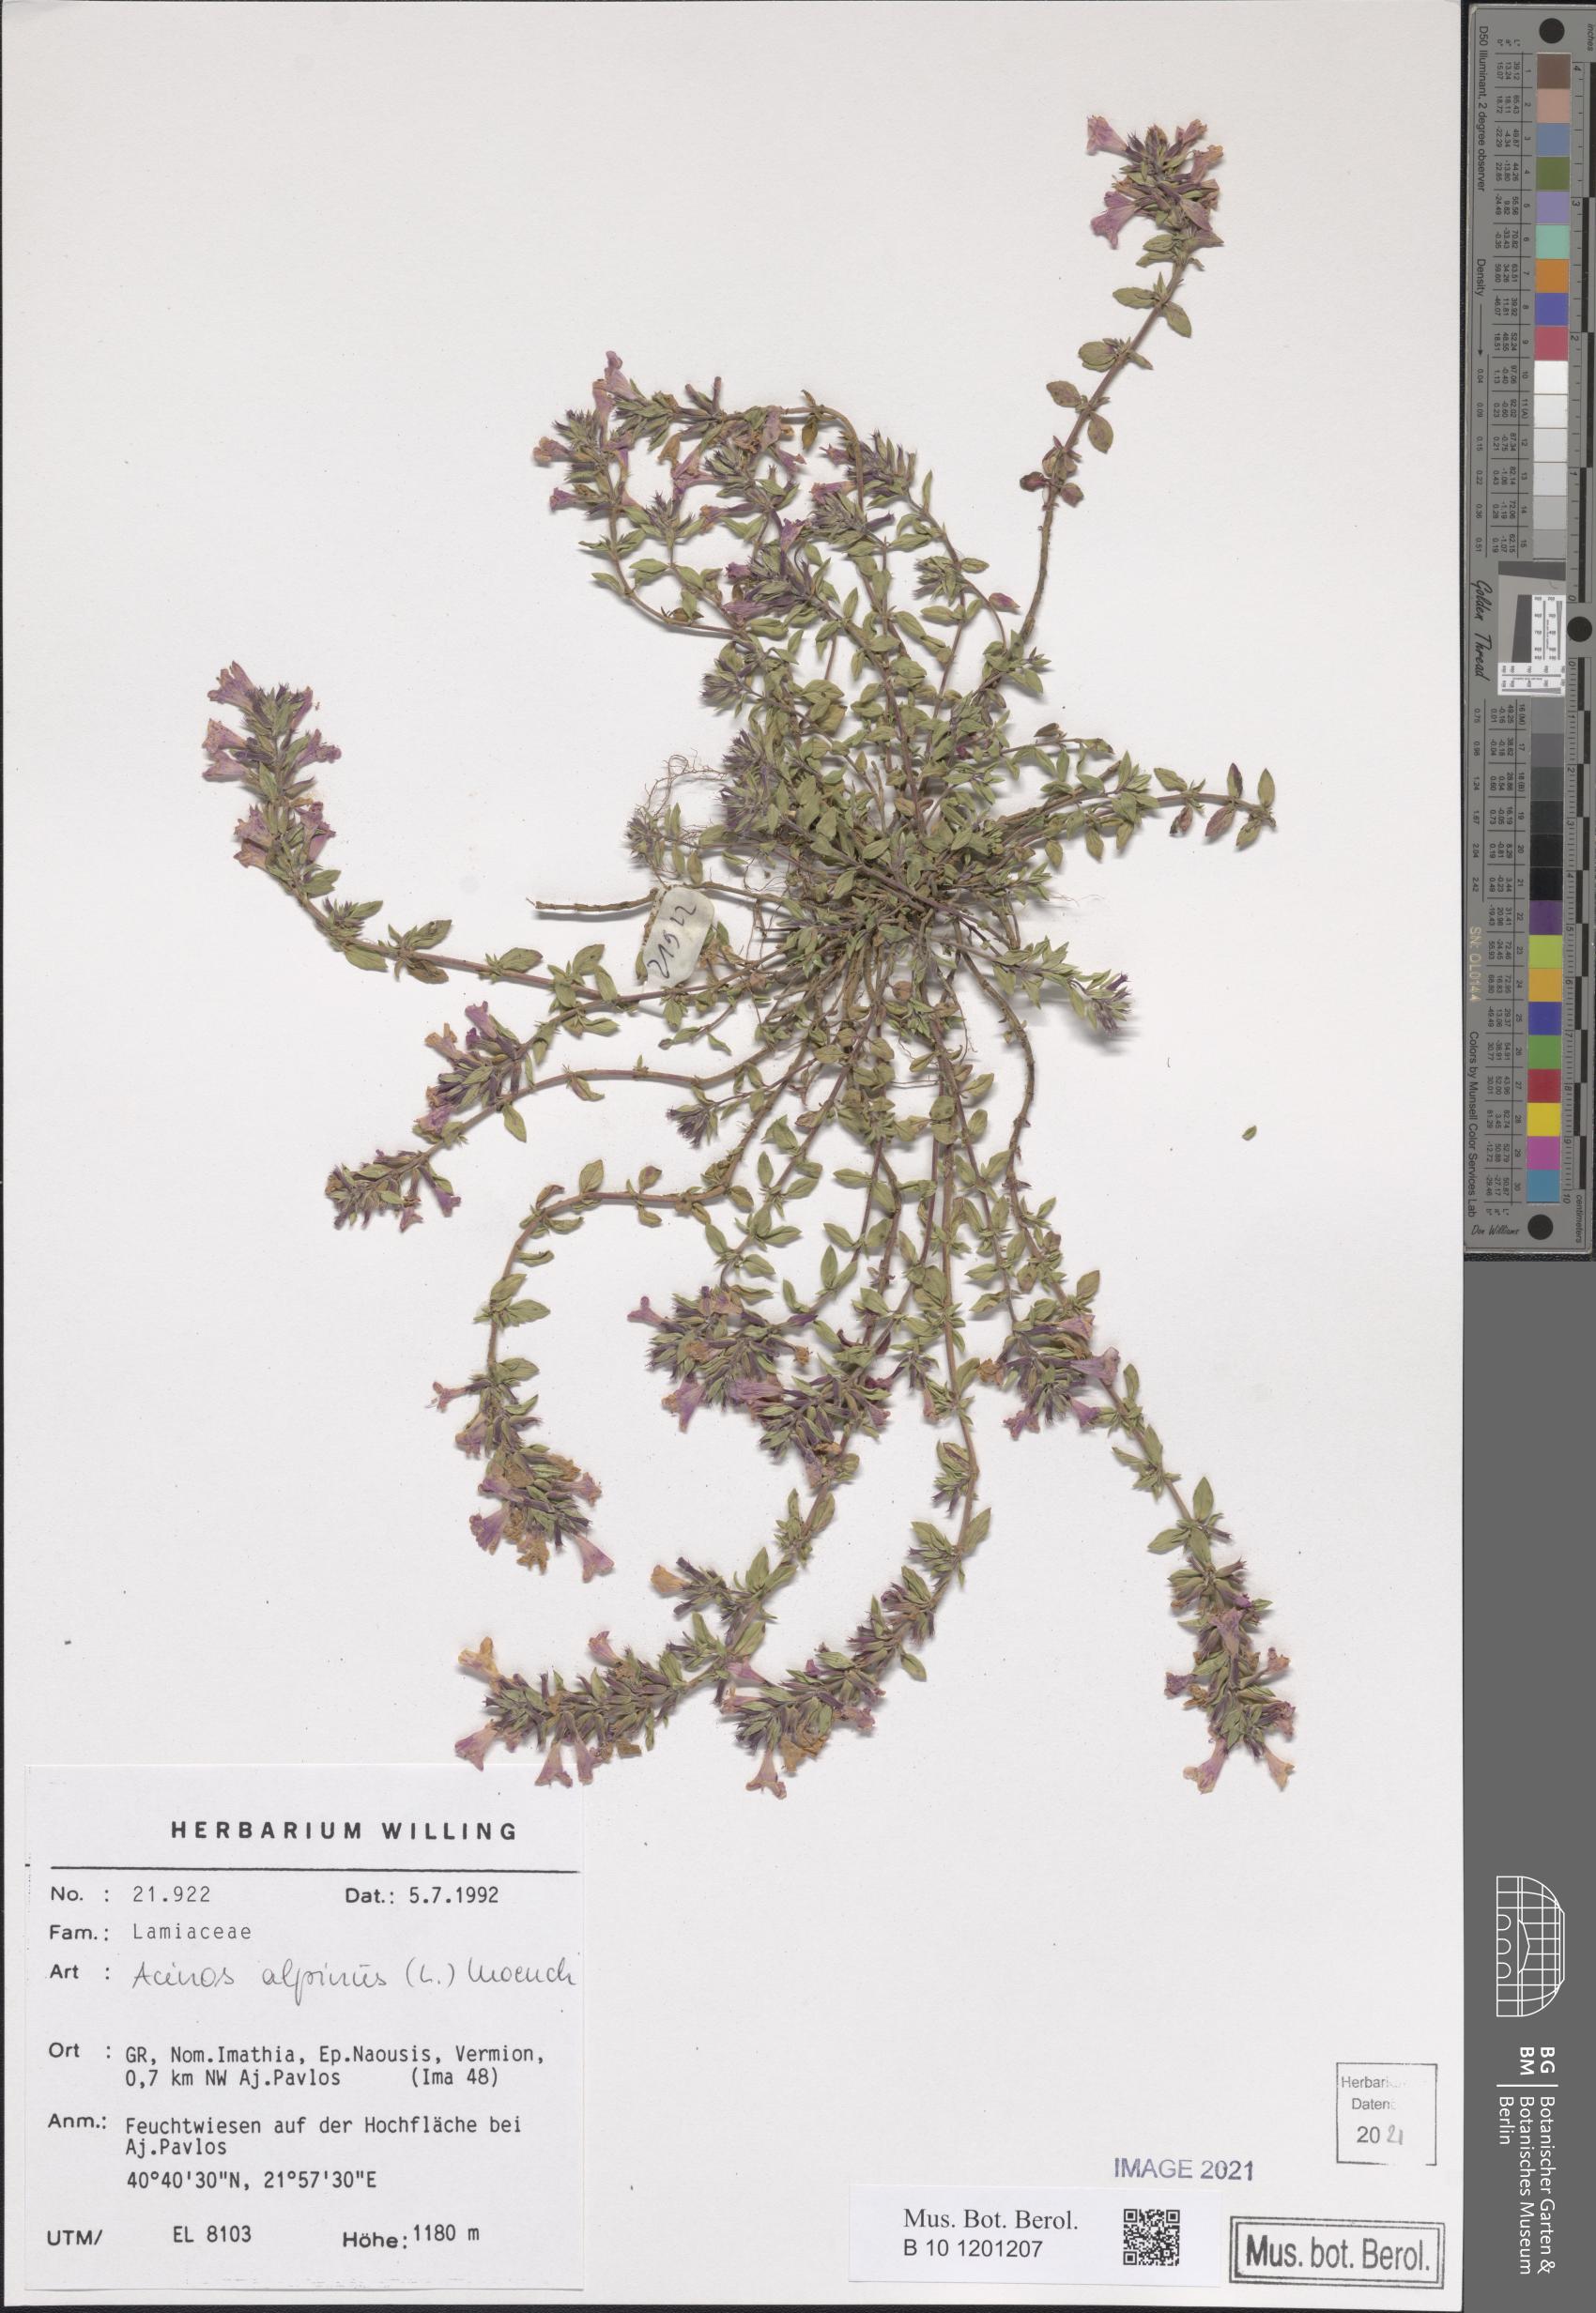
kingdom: Plantae
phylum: Tracheophyta
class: Magnoliopsida
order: Lamiales
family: Lamiaceae
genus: Clinopodium
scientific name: Clinopodium alpinum
